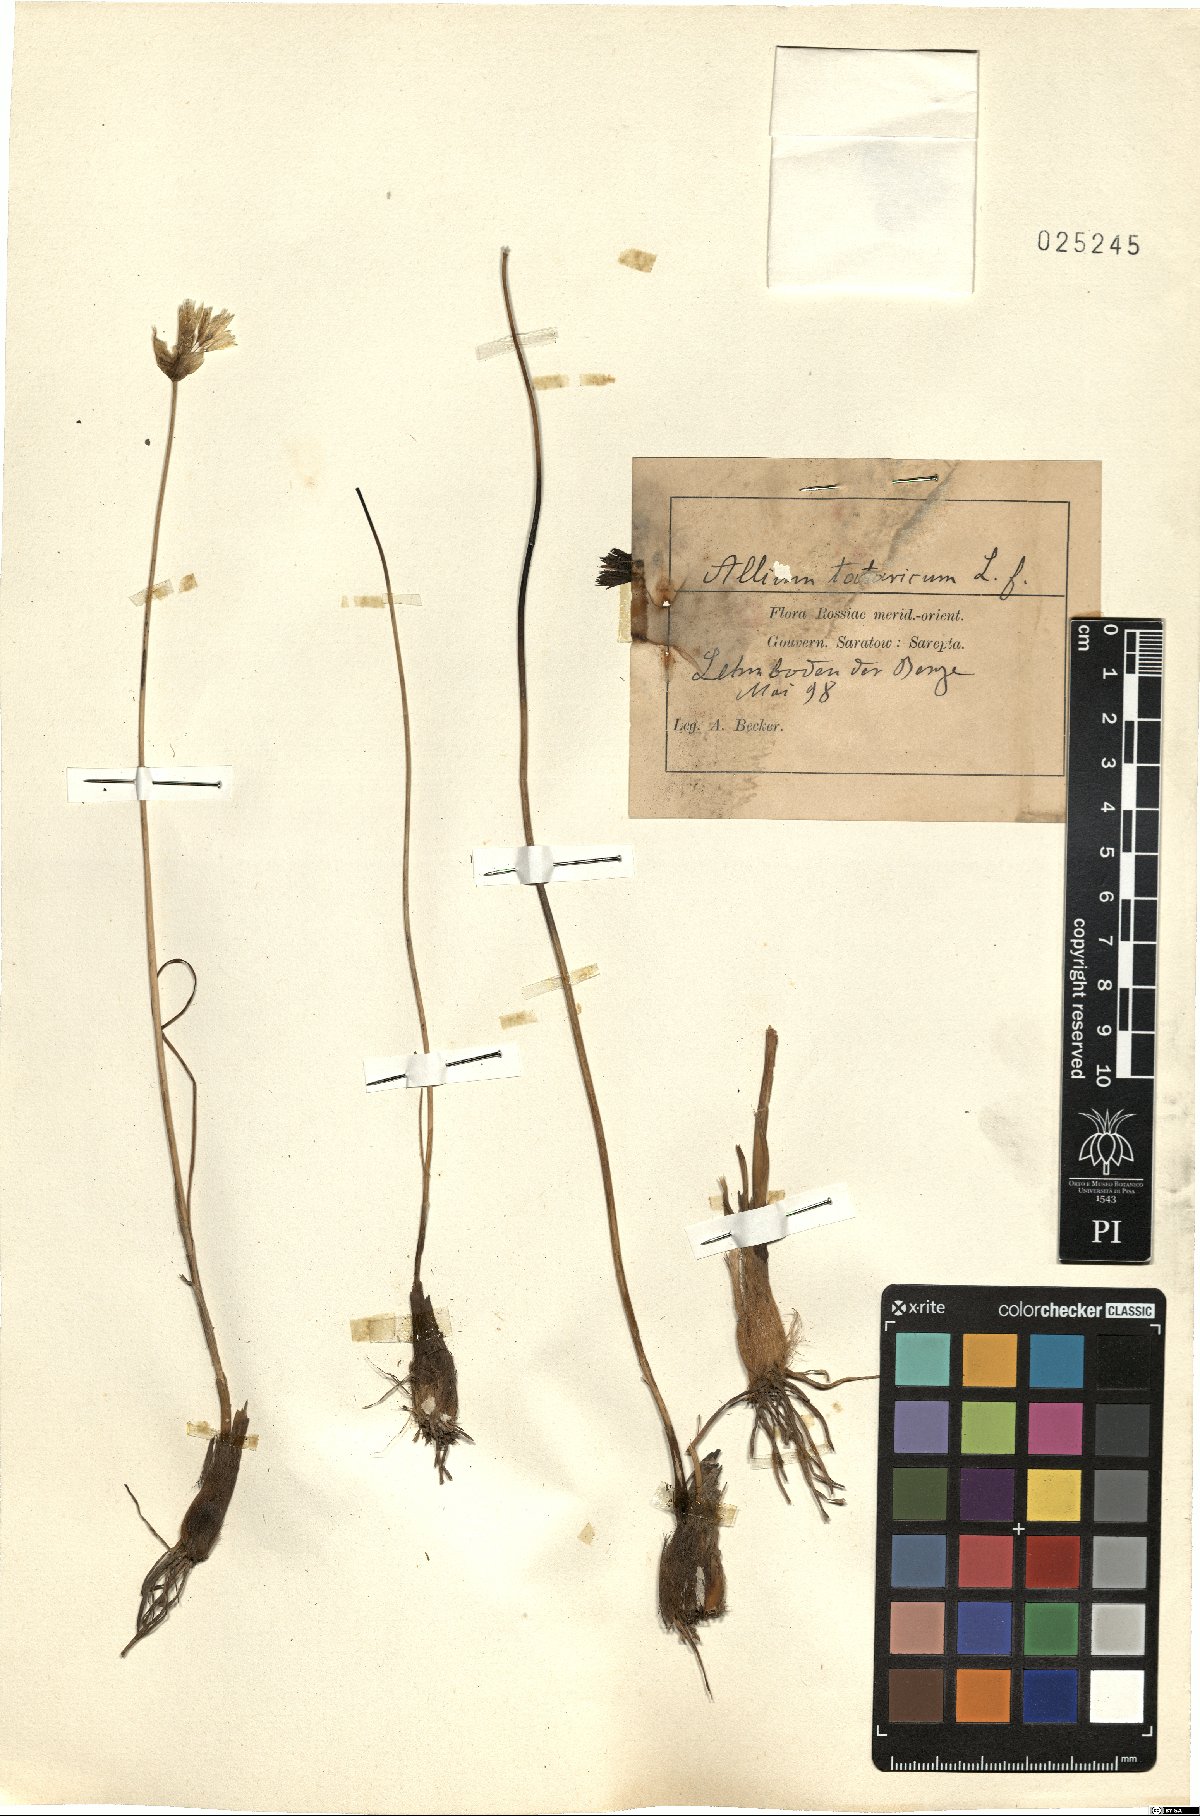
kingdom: Plantae
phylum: Tracheophyta
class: Liliopsida
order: Asparagales
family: Amaryllidaceae
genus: Allium
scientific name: Allium ramosum
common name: Fragrant garlic
